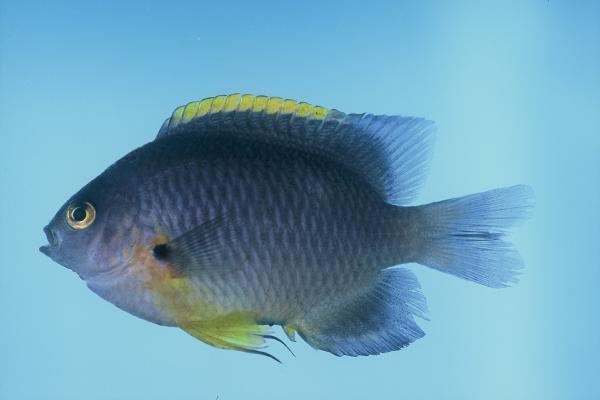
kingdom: Animalia
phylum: Chordata
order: Perciformes
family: Pomacentridae
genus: Pomacentrus
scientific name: Pomacentrus rodriguesensis
